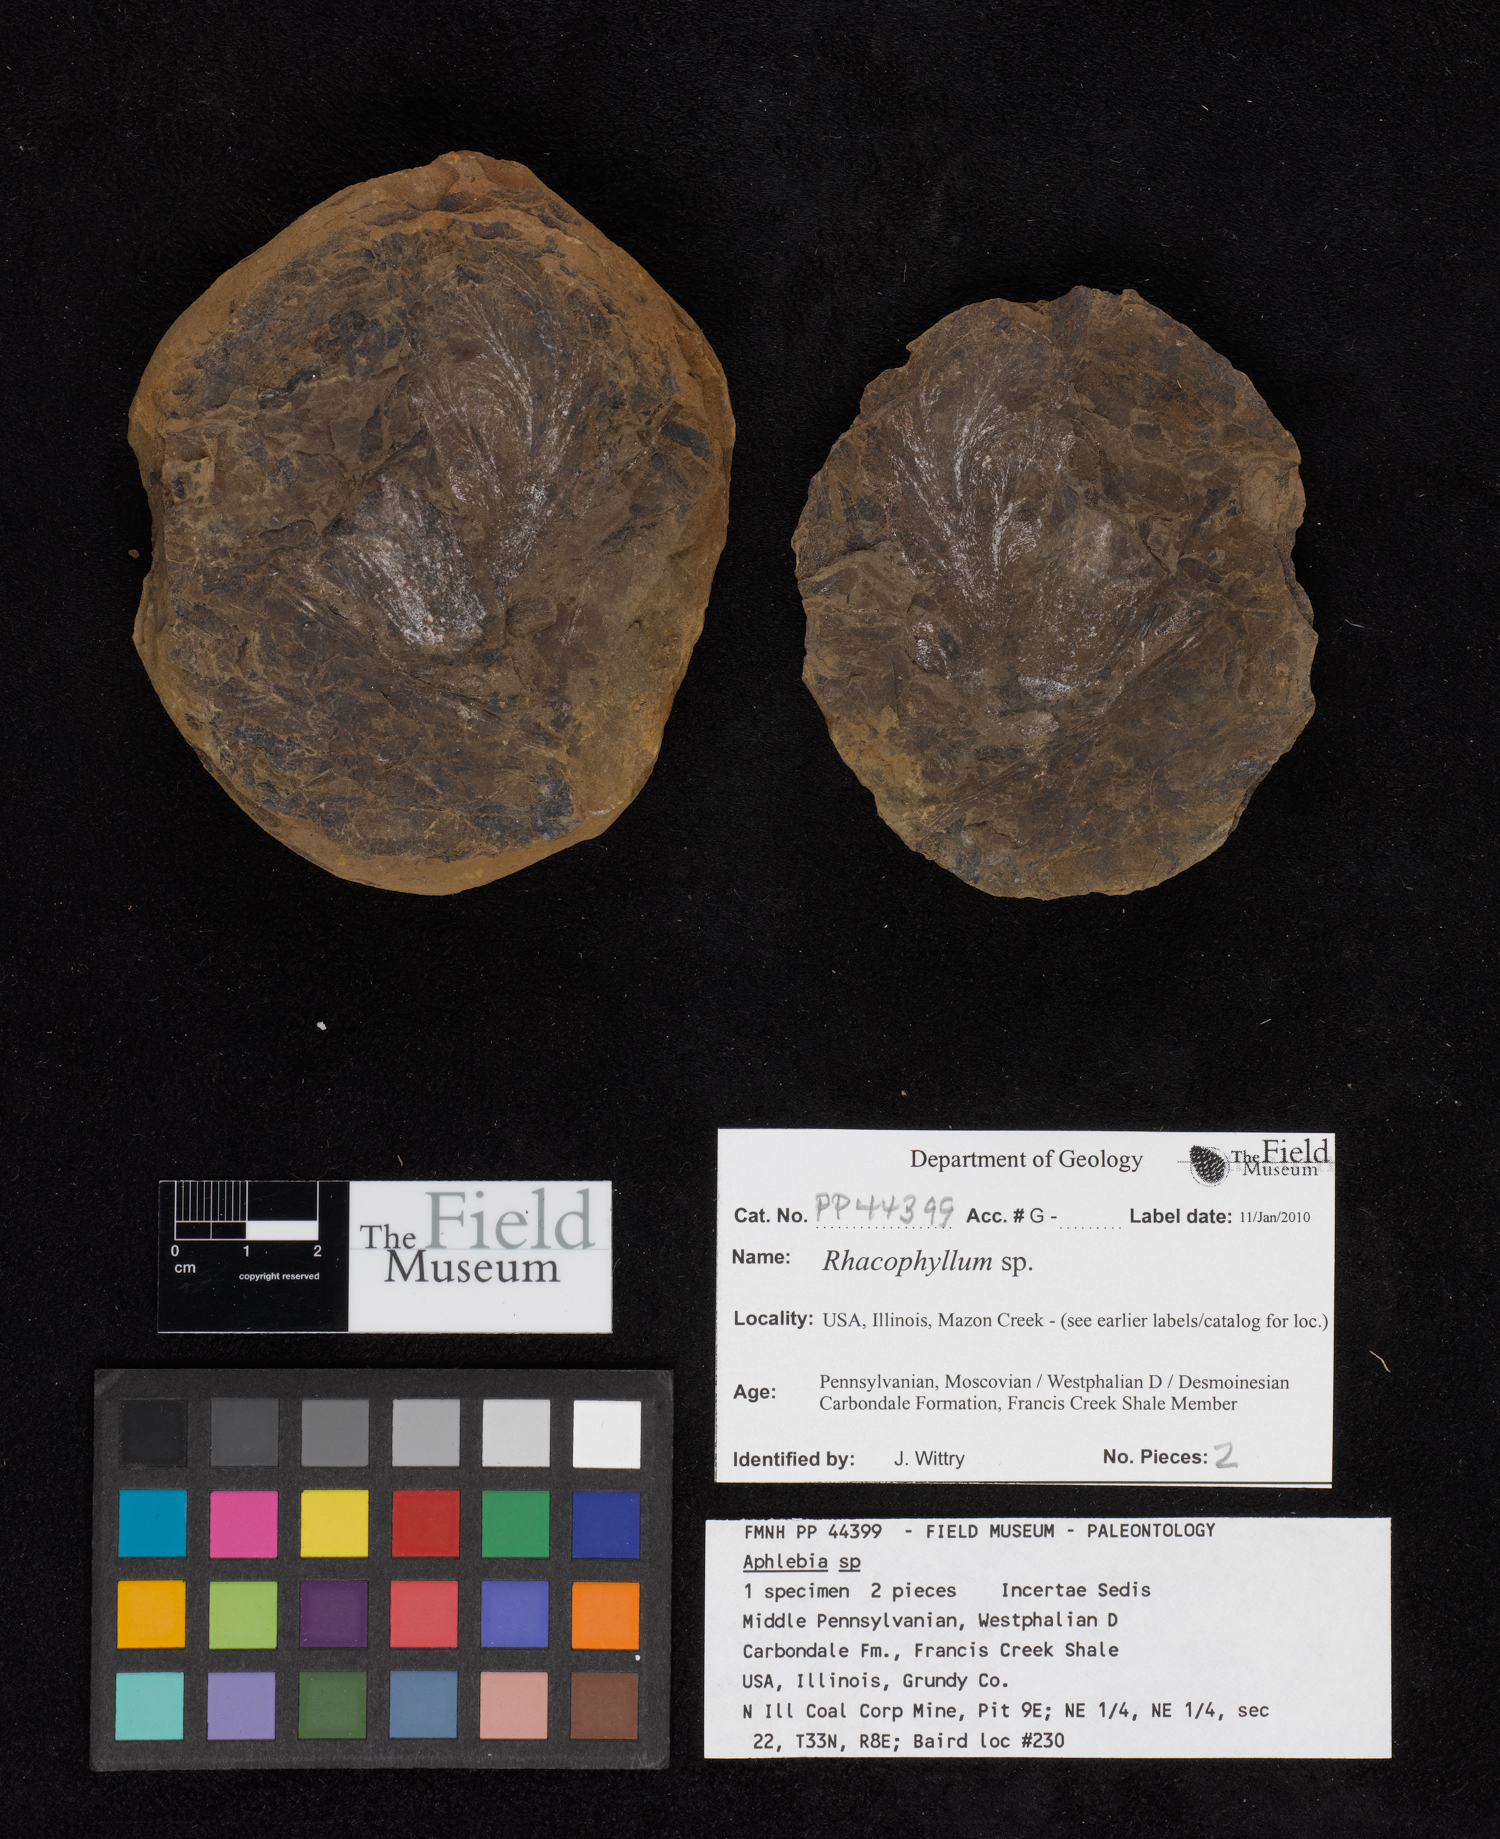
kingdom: Plantae
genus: Rhacophyllum
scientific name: Rhacophyllum
